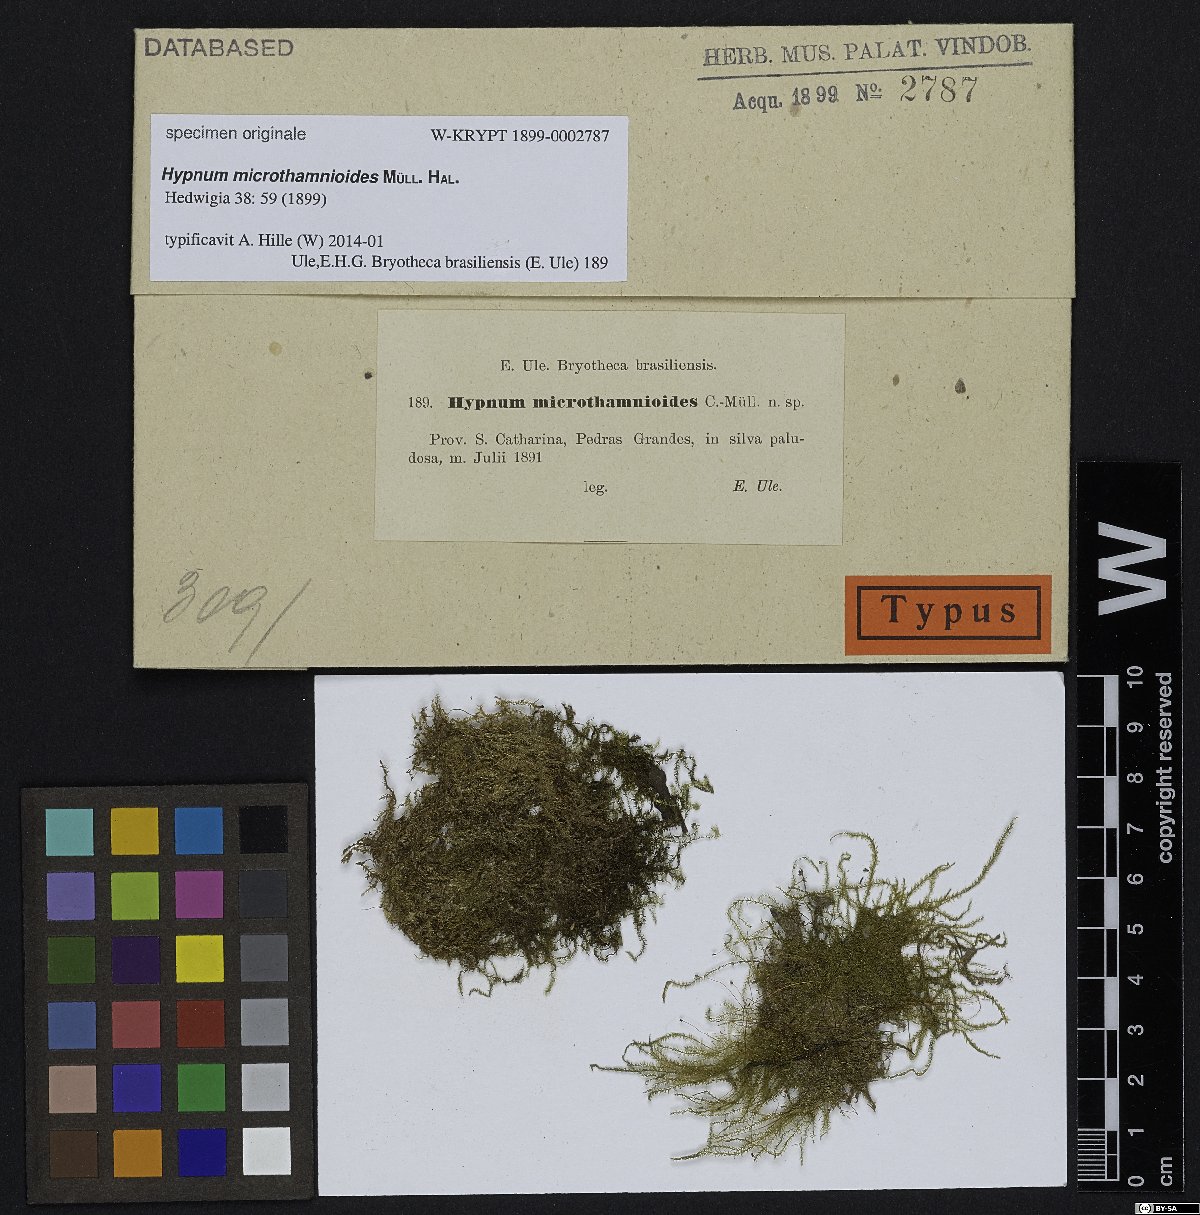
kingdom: Plantae
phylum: Bryophyta
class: Bryopsida
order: Hypnales
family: Hypnaceae
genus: Mittenothamnium
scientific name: Mittenothamnium microthamnioides
